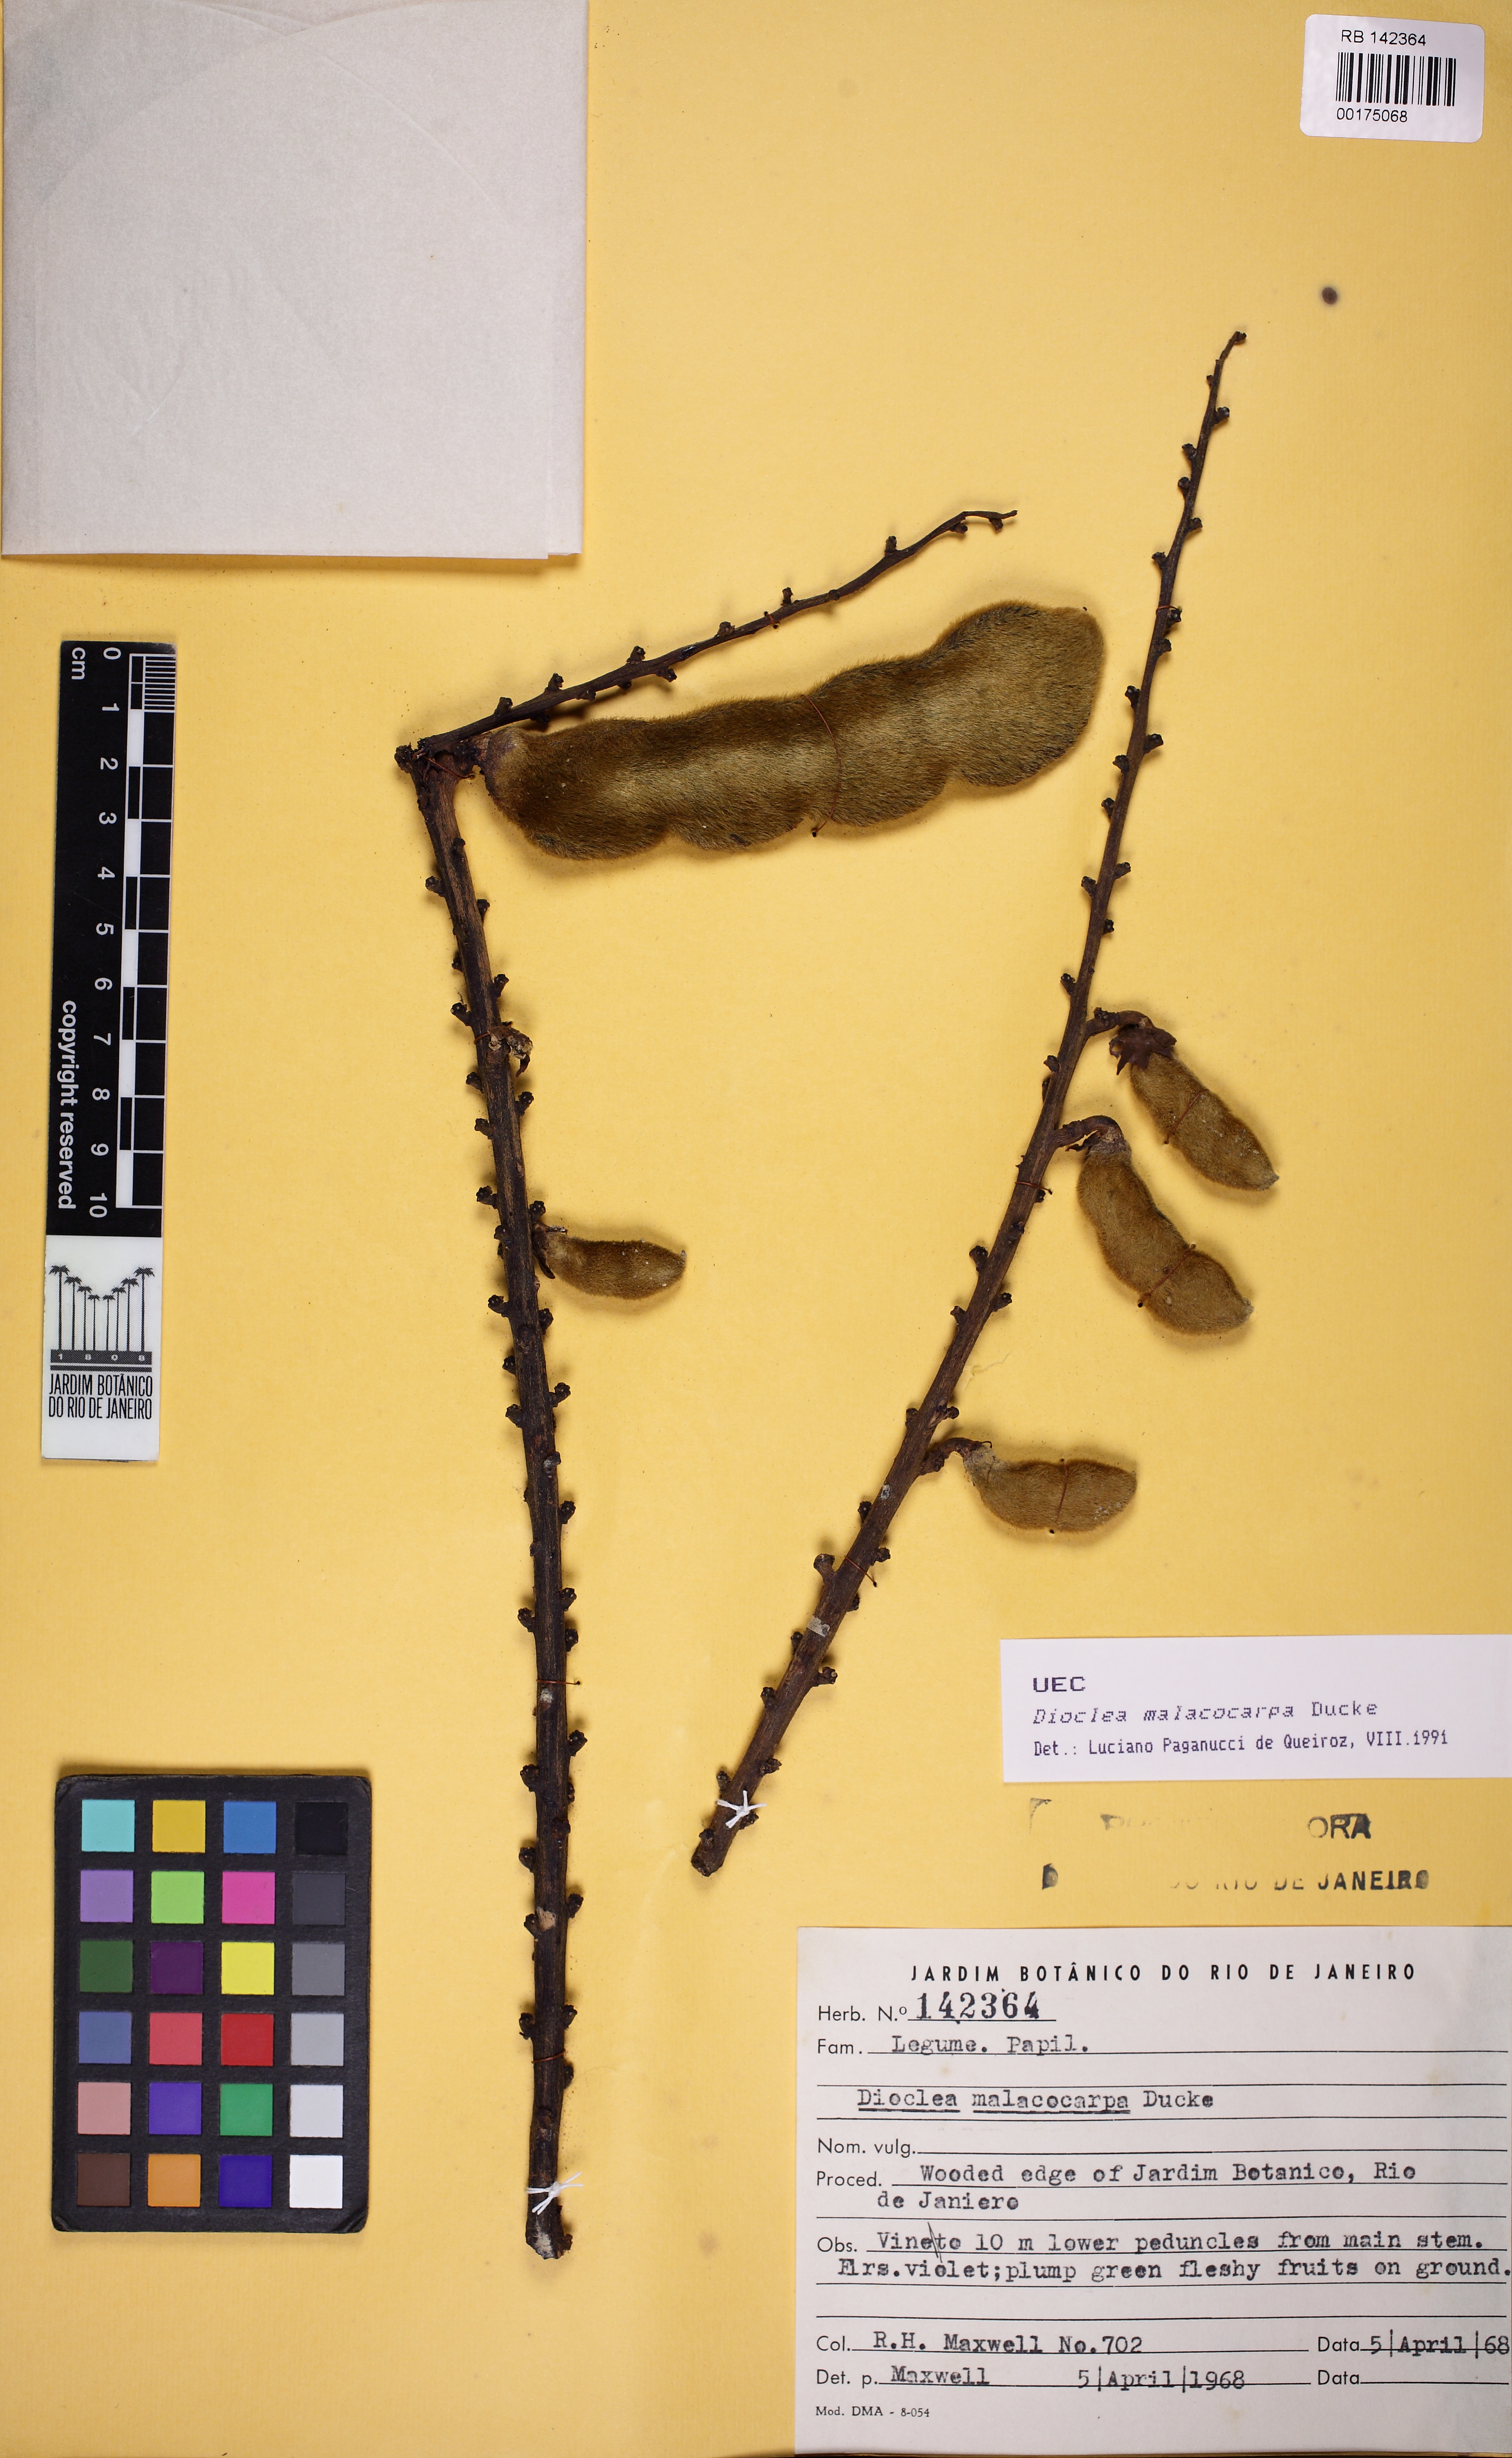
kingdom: Plantae
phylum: Tracheophyta
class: Magnoliopsida
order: Fabales
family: Fabaceae
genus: Macropsychanthus
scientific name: Macropsychanthus malacocarpus
